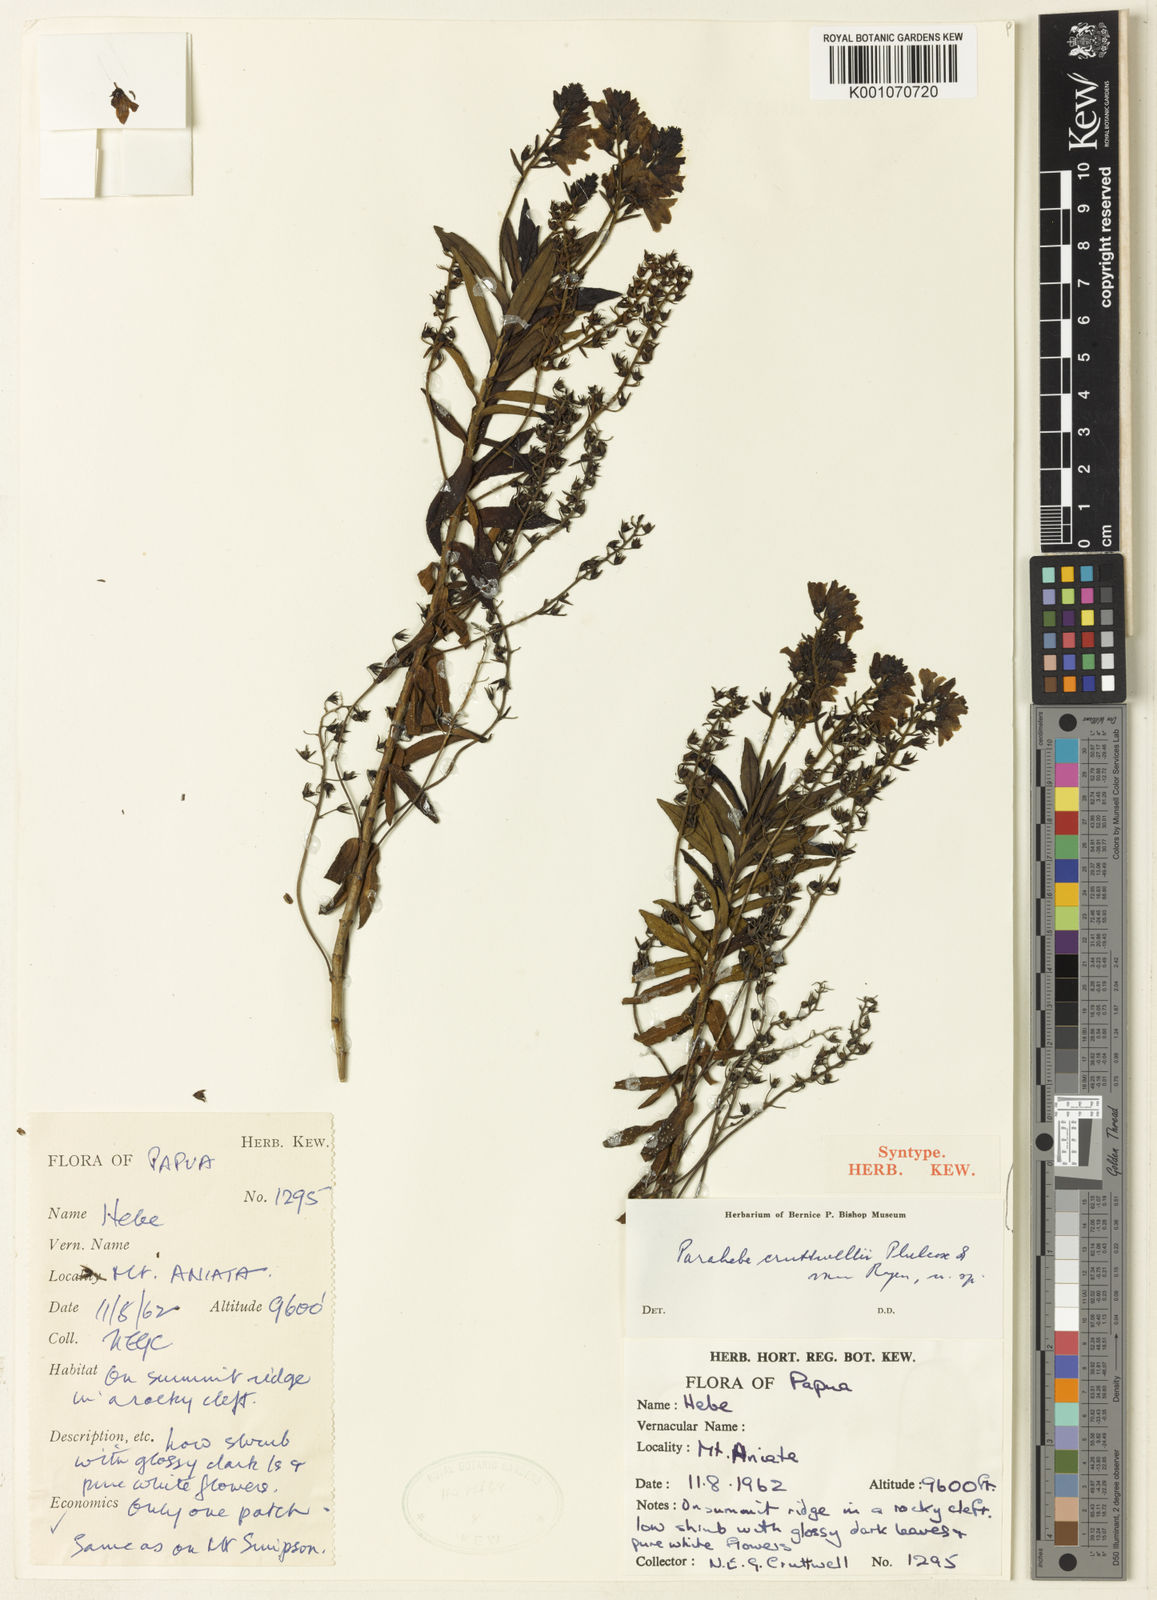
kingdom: Plantae
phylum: Tracheophyta
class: Magnoliopsida
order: Lamiales
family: Plantaginaceae
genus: Veronica
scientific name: Veronica
